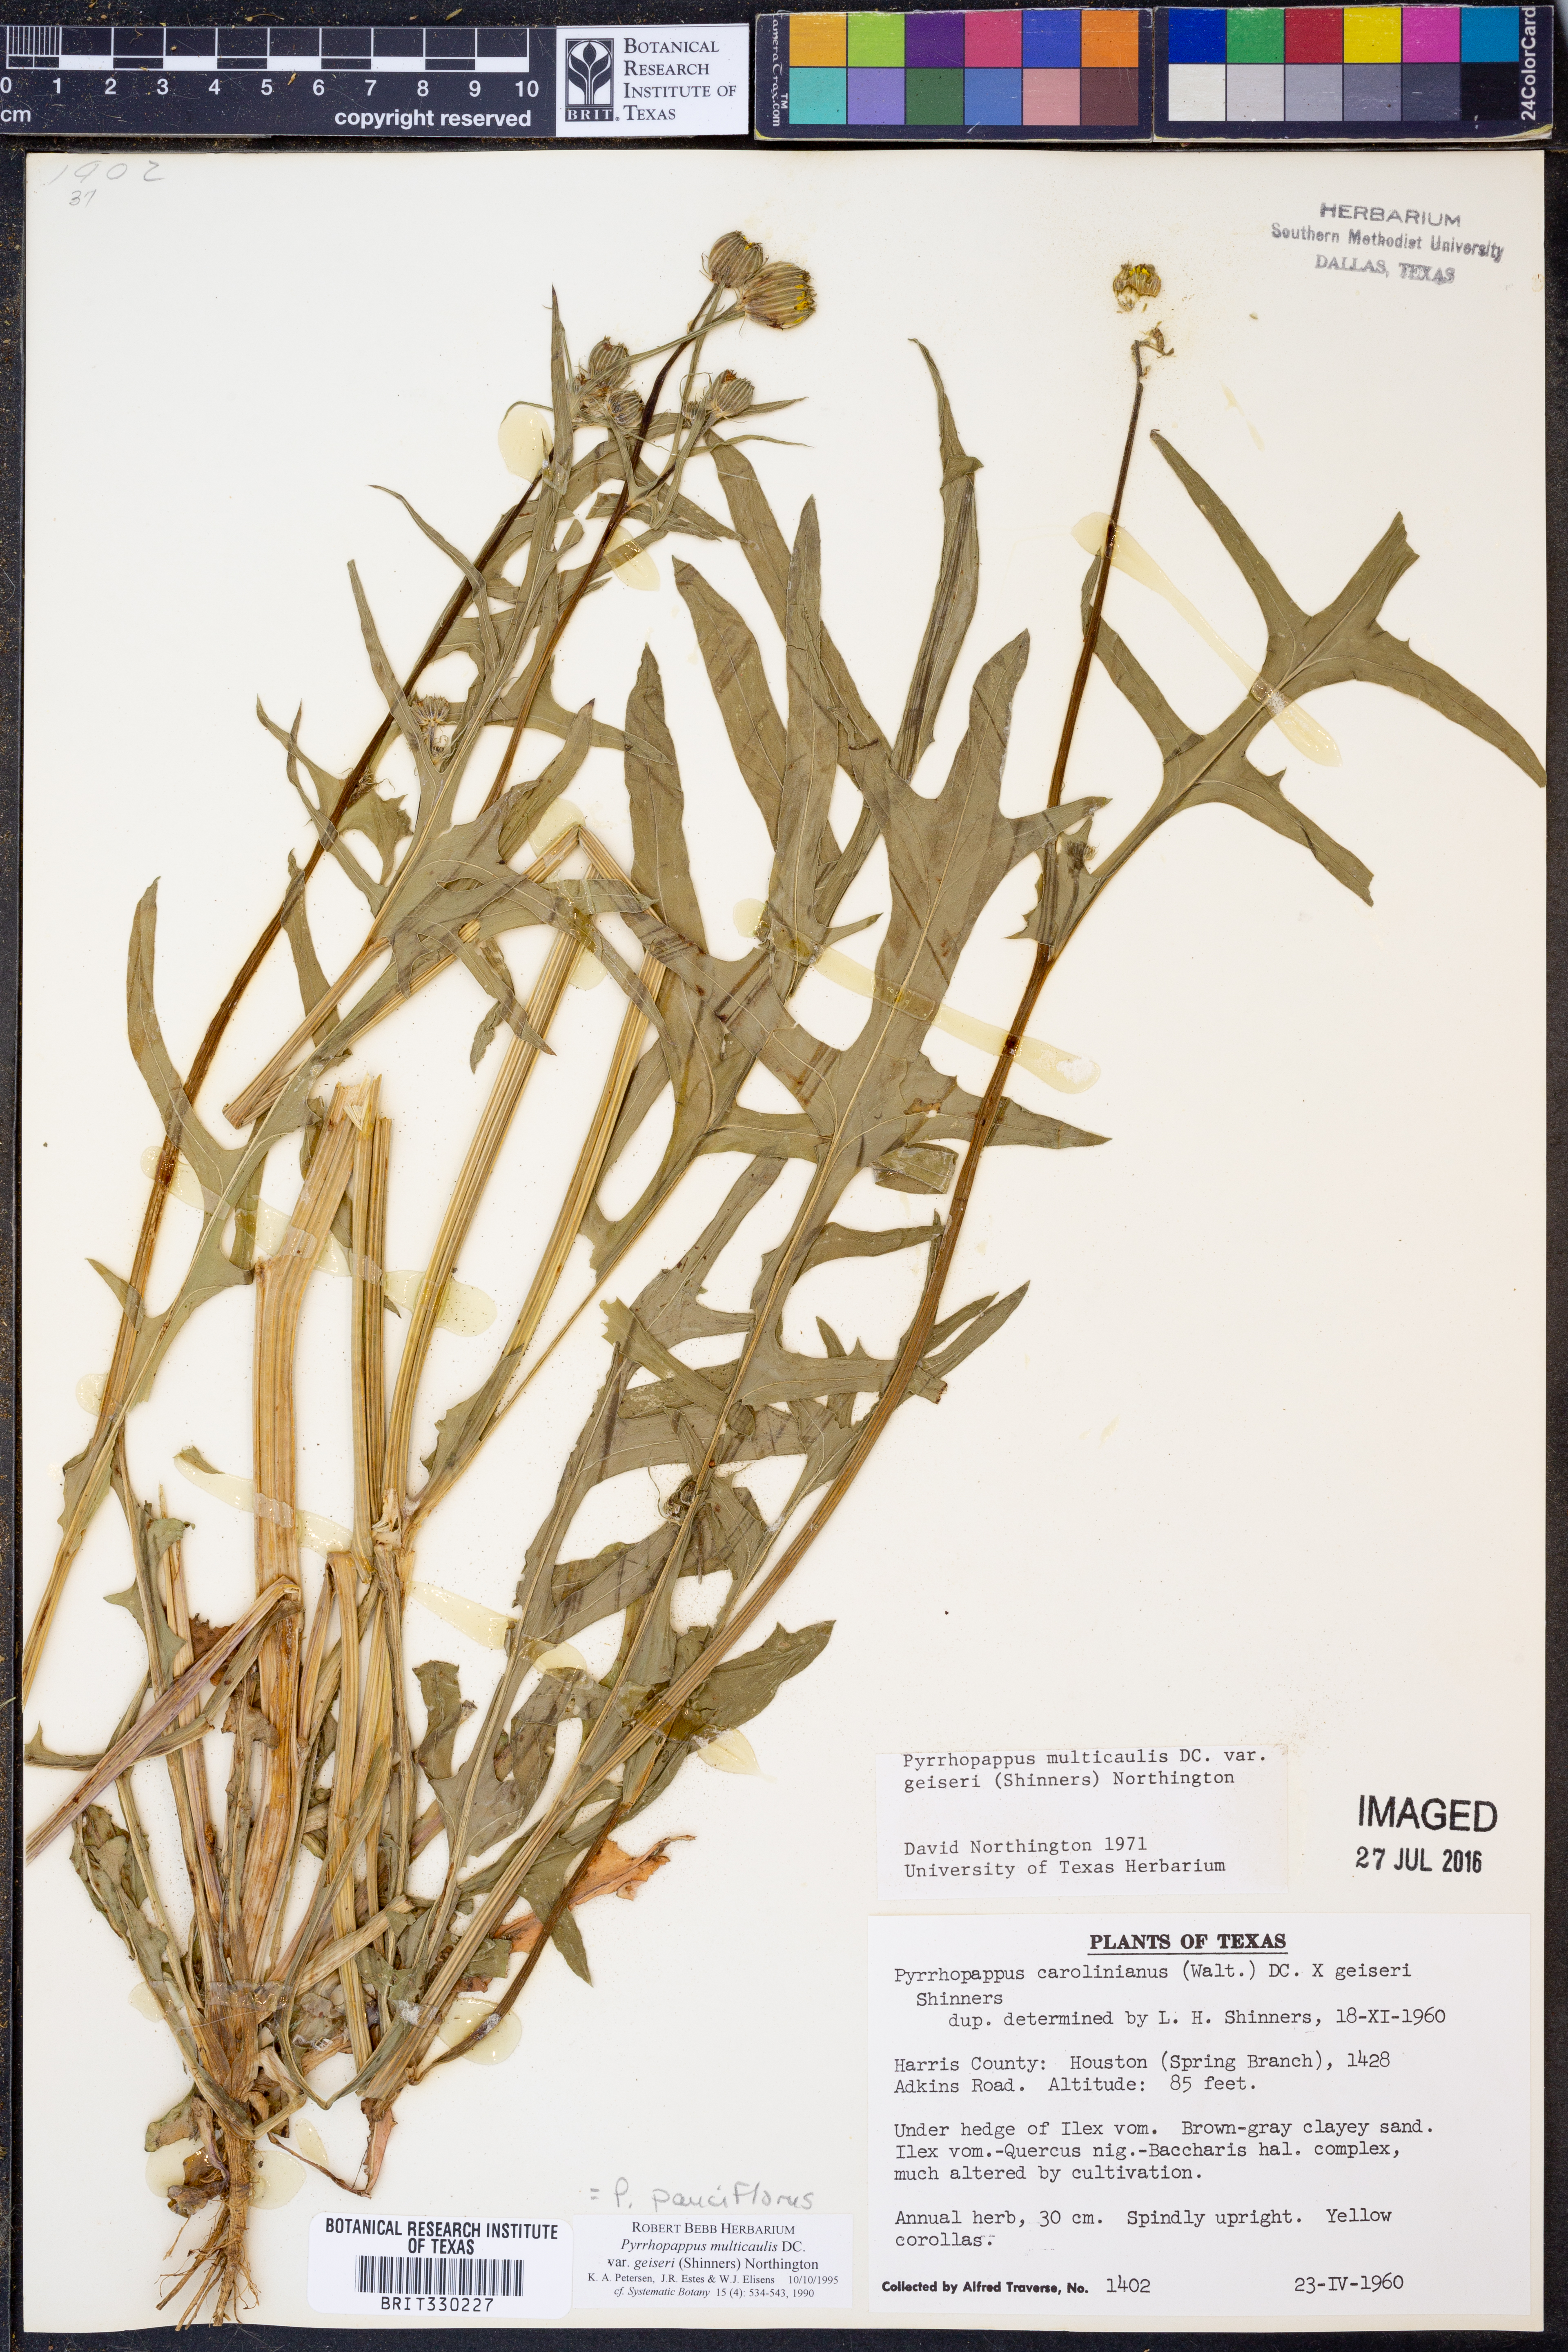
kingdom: Plantae
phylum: Tracheophyta
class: Magnoliopsida
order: Asterales
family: Asteraceae
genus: Pyrrhopappus
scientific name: Pyrrhopappus pauciflorus
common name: Texas false dandelion
